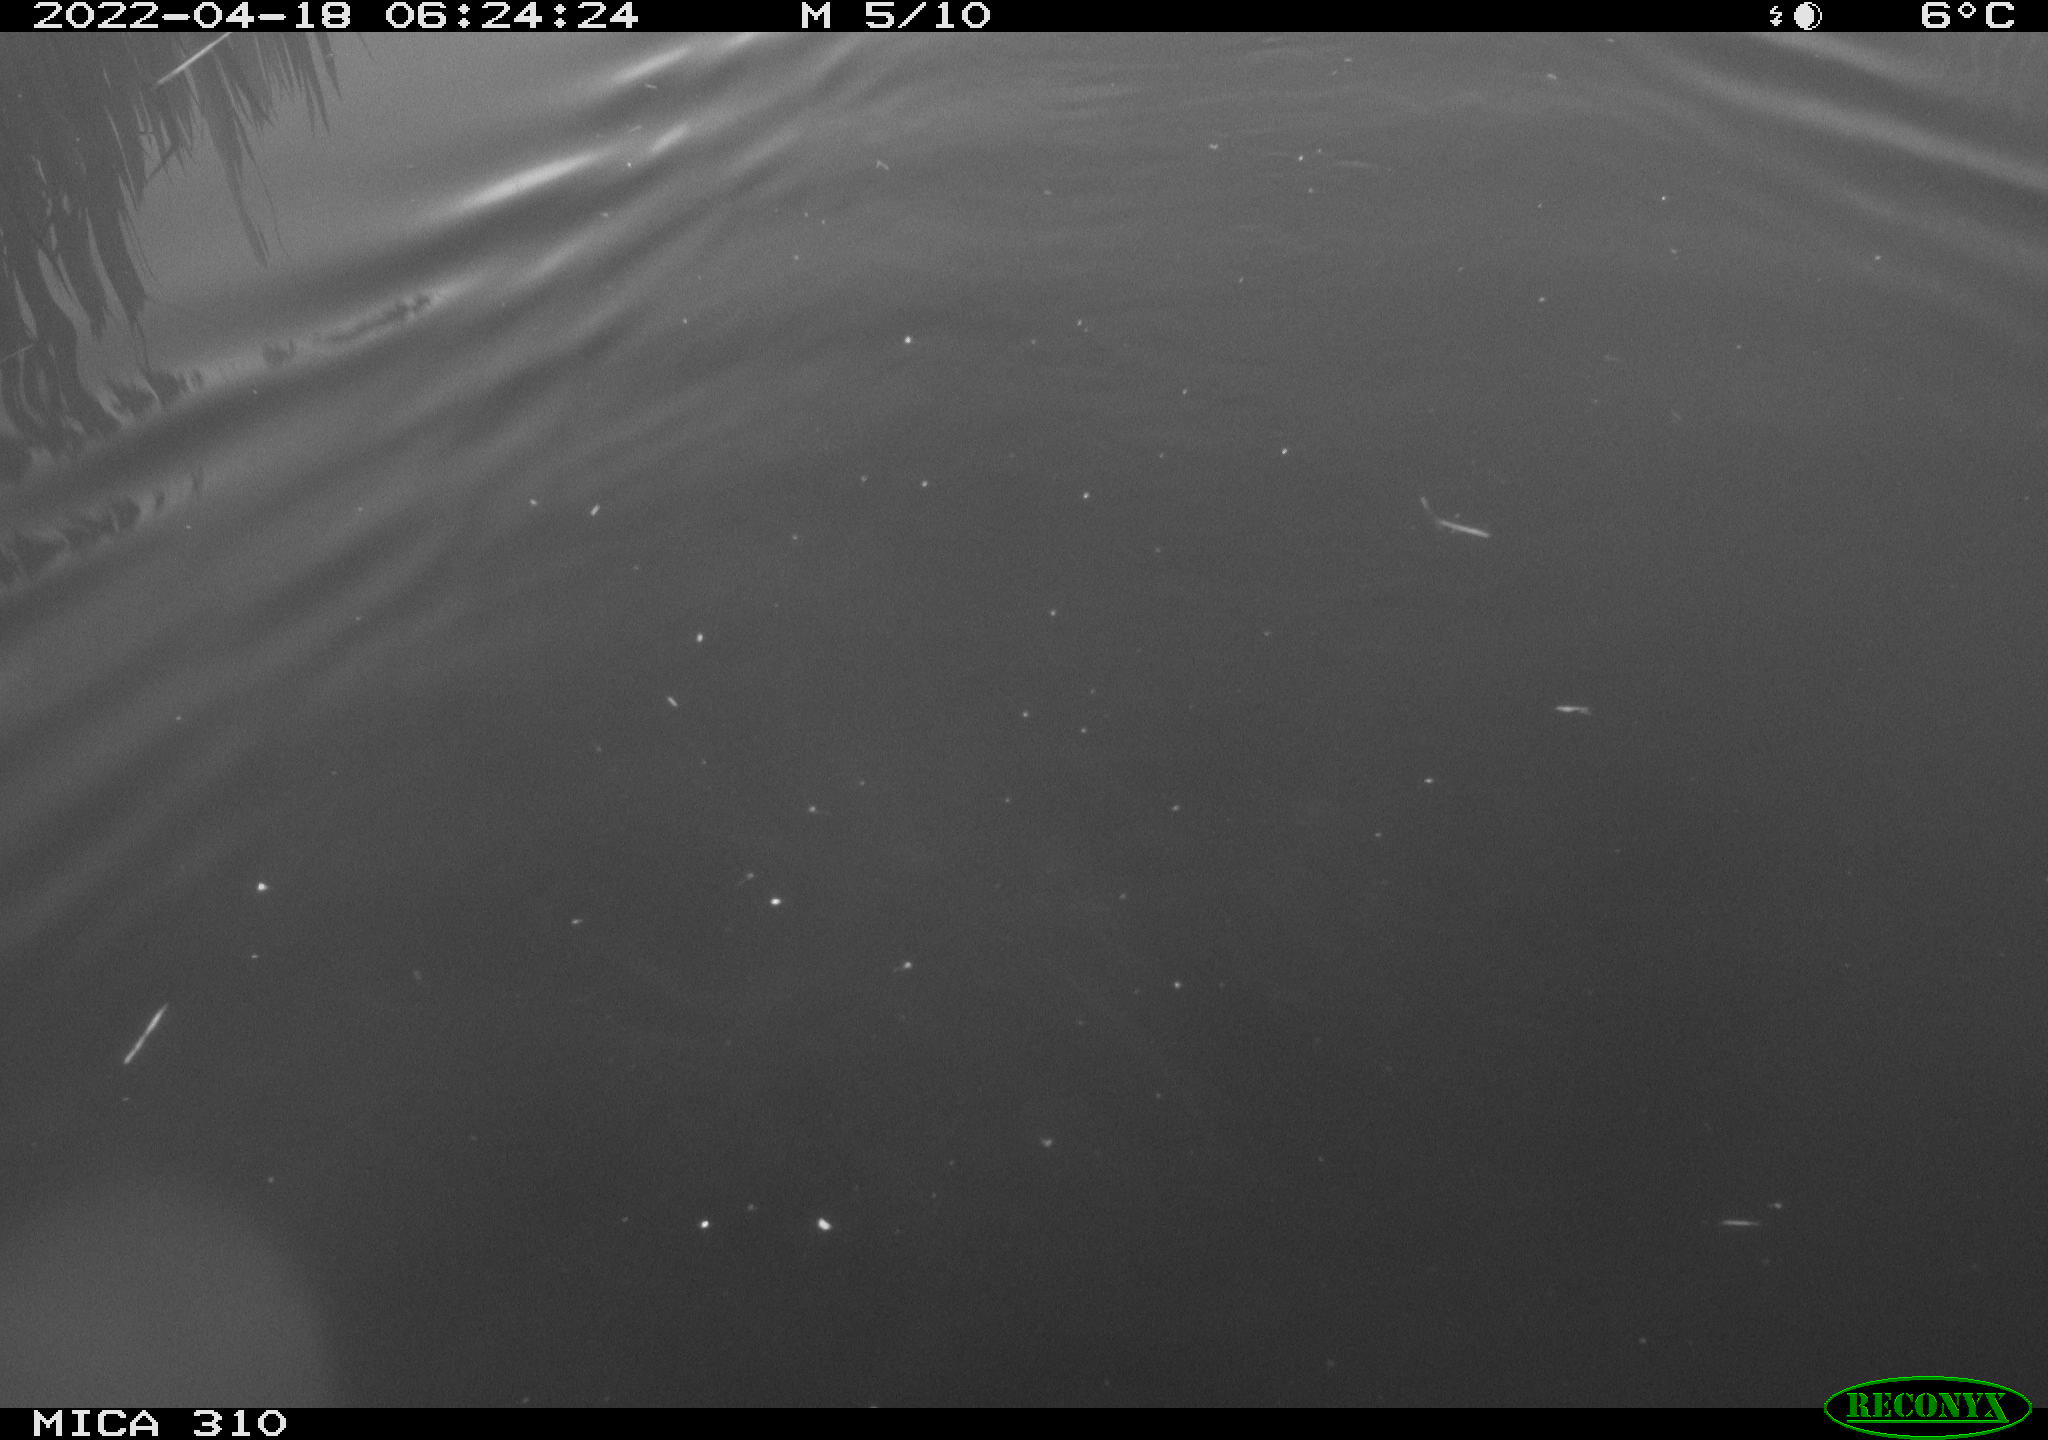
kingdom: Animalia
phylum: Chordata
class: Aves
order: Anseriformes
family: Anatidae
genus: Anas
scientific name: Anas platyrhynchos
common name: Mallard
